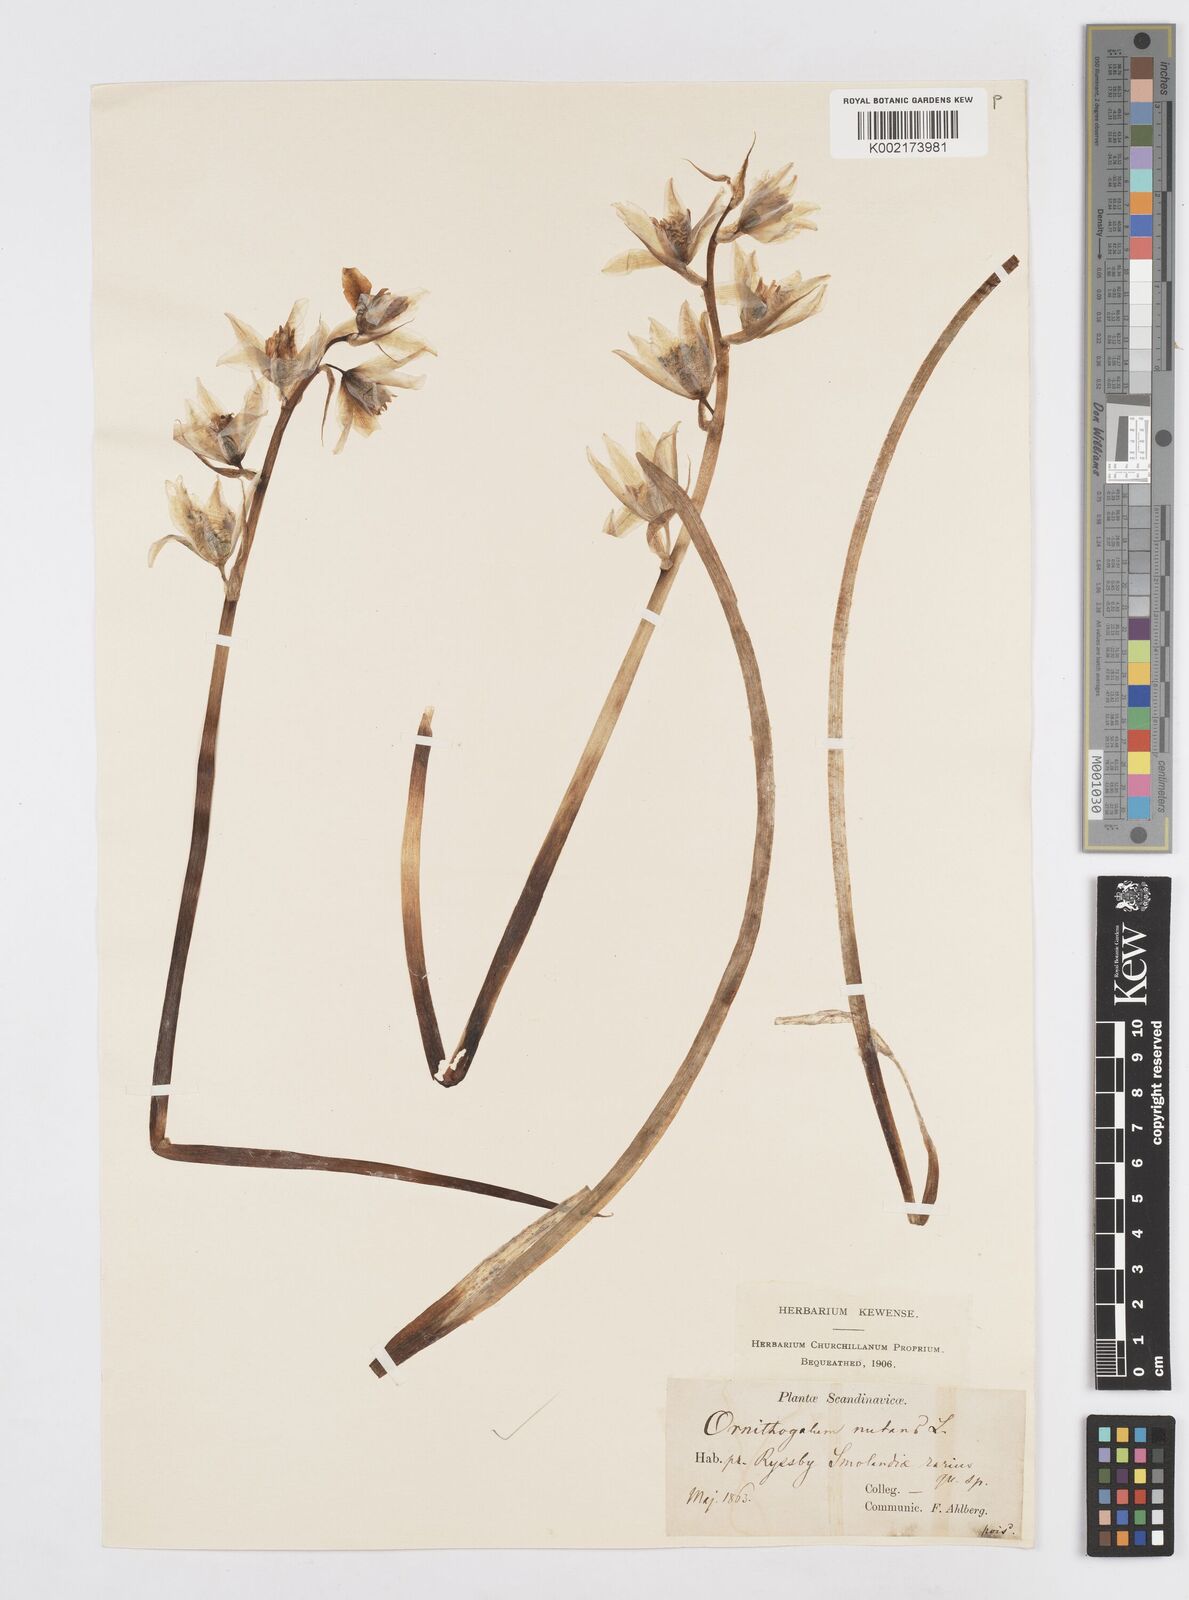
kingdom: Plantae
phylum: Tracheophyta
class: Liliopsida
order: Asparagales
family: Asparagaceae
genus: Ornithogalum
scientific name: Ornithogalum nutans
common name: Drooping star-of-bethlehem
